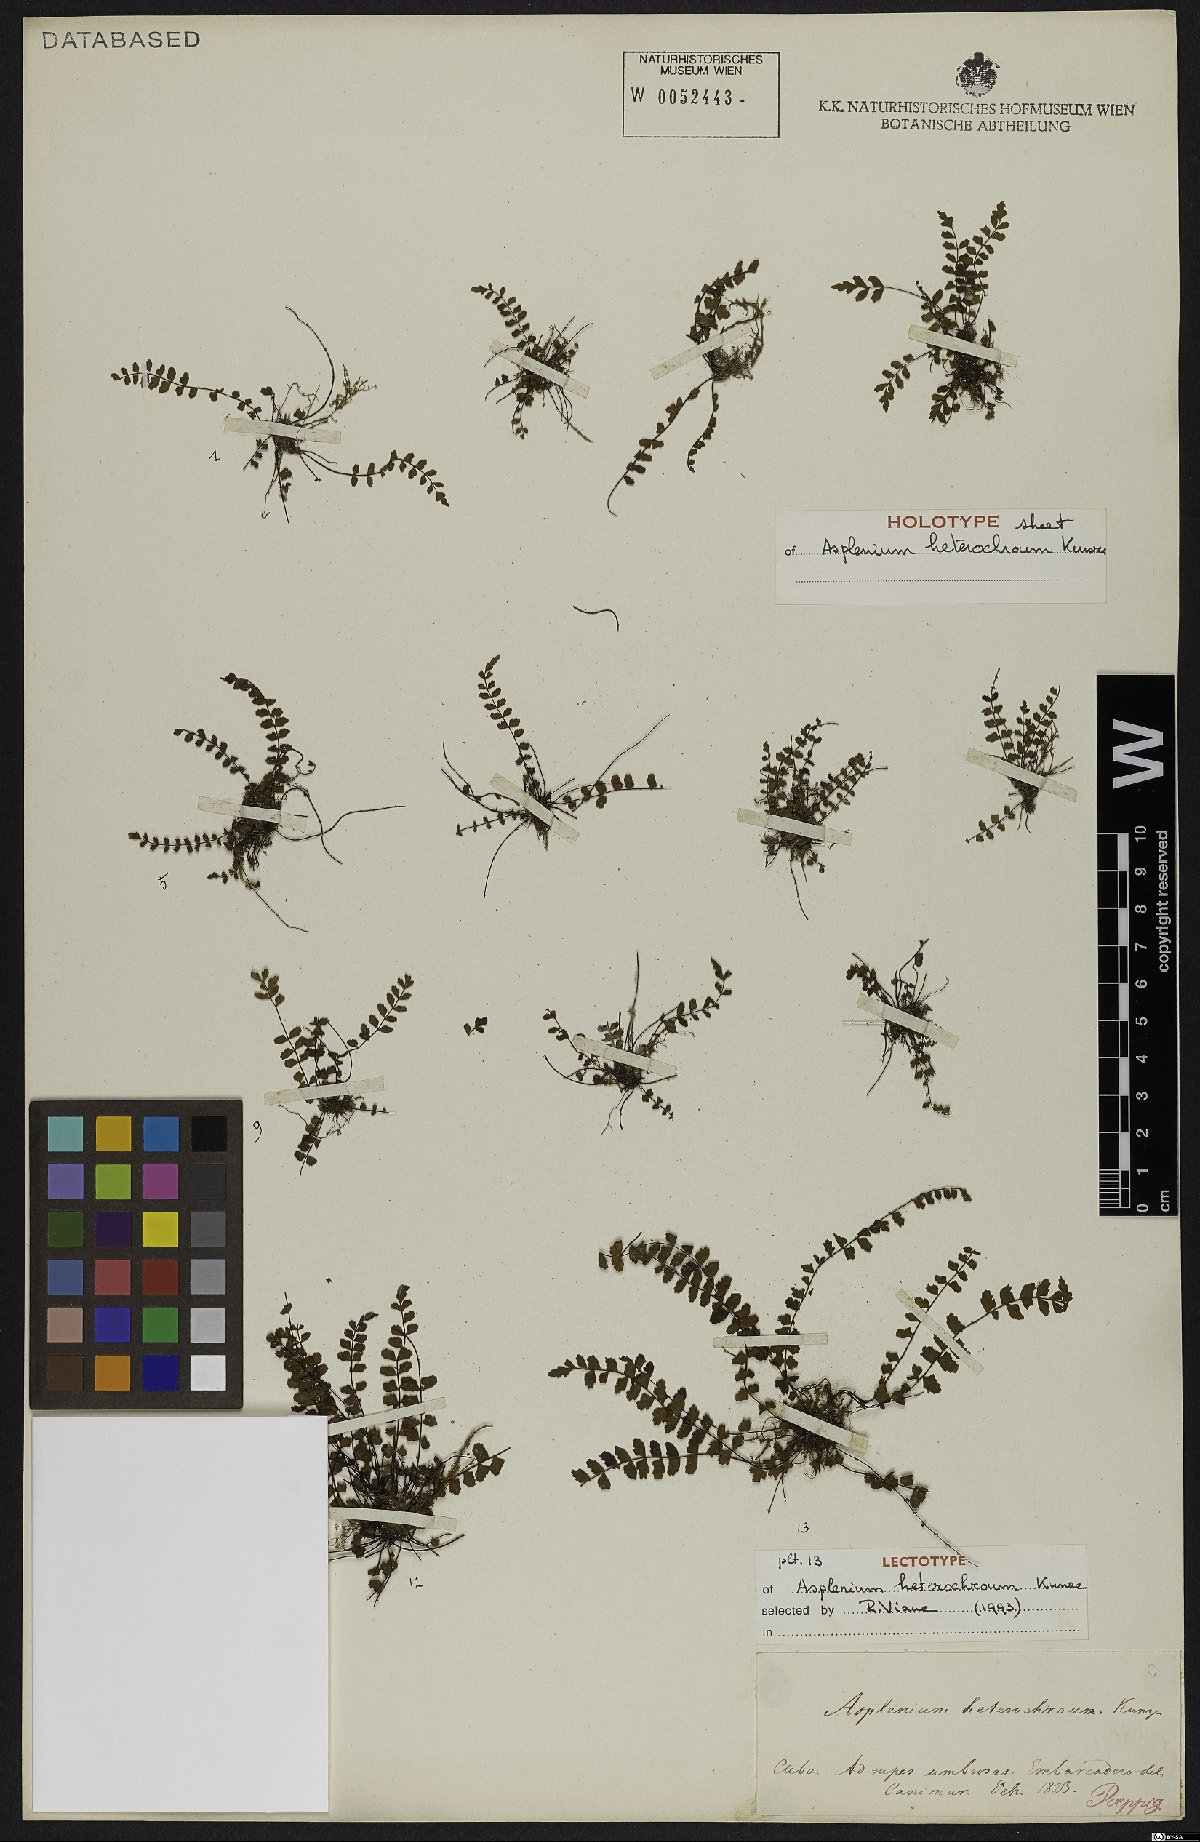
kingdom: Plantae
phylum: Tracheophyta
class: Polypodiopsida
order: Polypodiales
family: Aspleniaceae
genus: Asplenium
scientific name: Asplenium heterochroum
